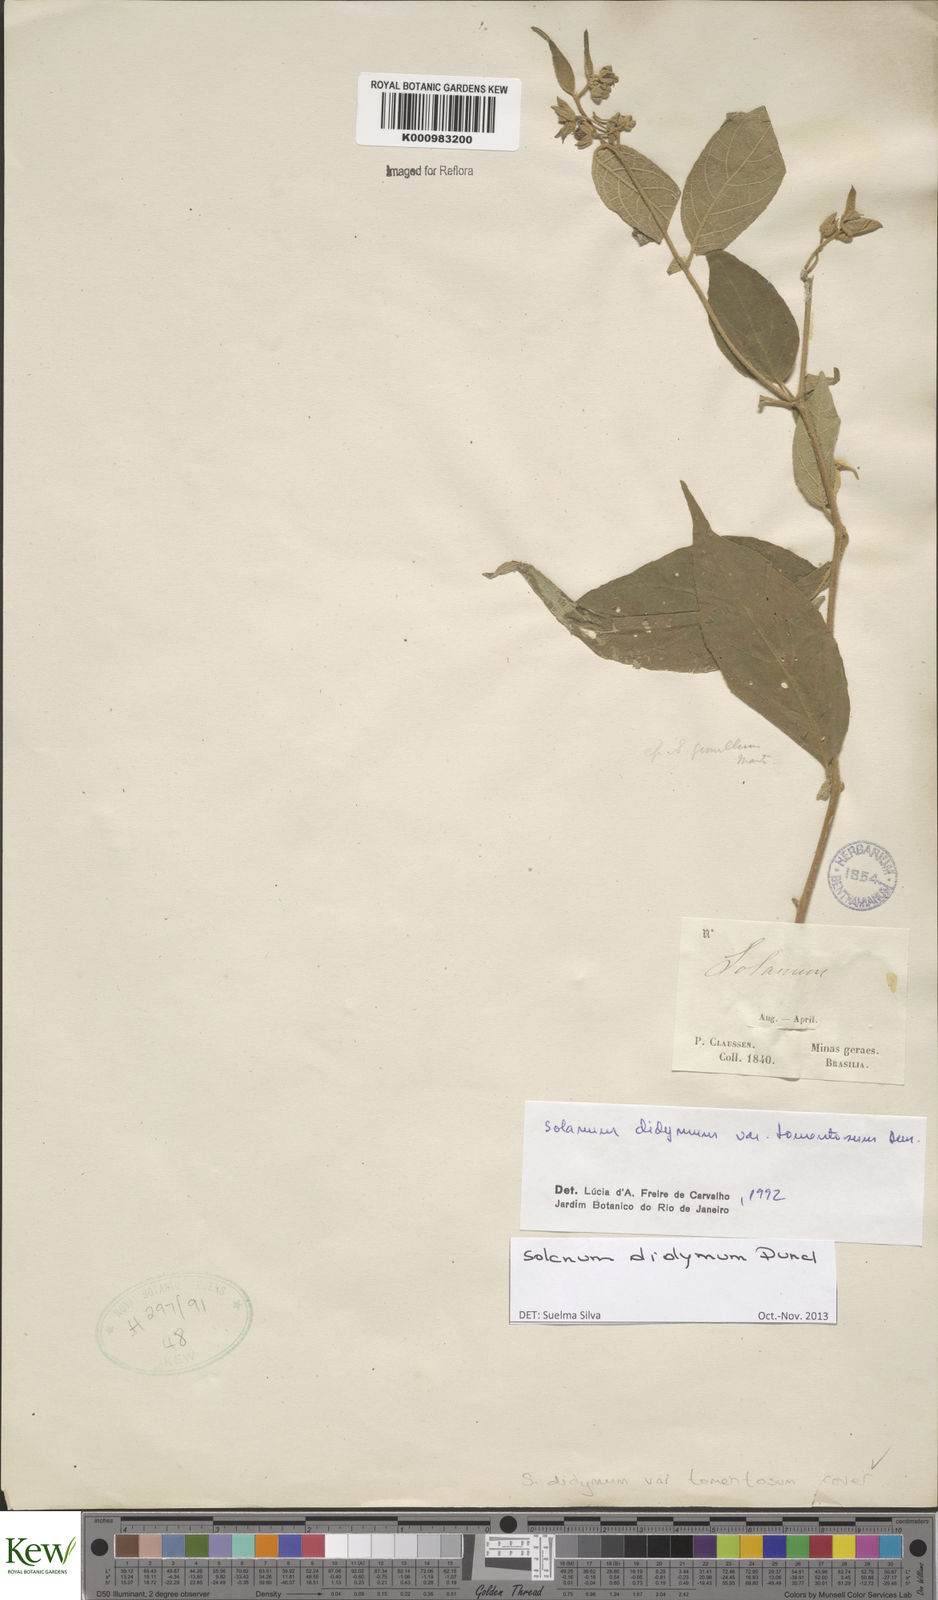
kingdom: Plantae
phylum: Tracheophyta
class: Magnoliopsida
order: Solanales
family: Solanaceae
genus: Solanum
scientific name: Solanum didymum
